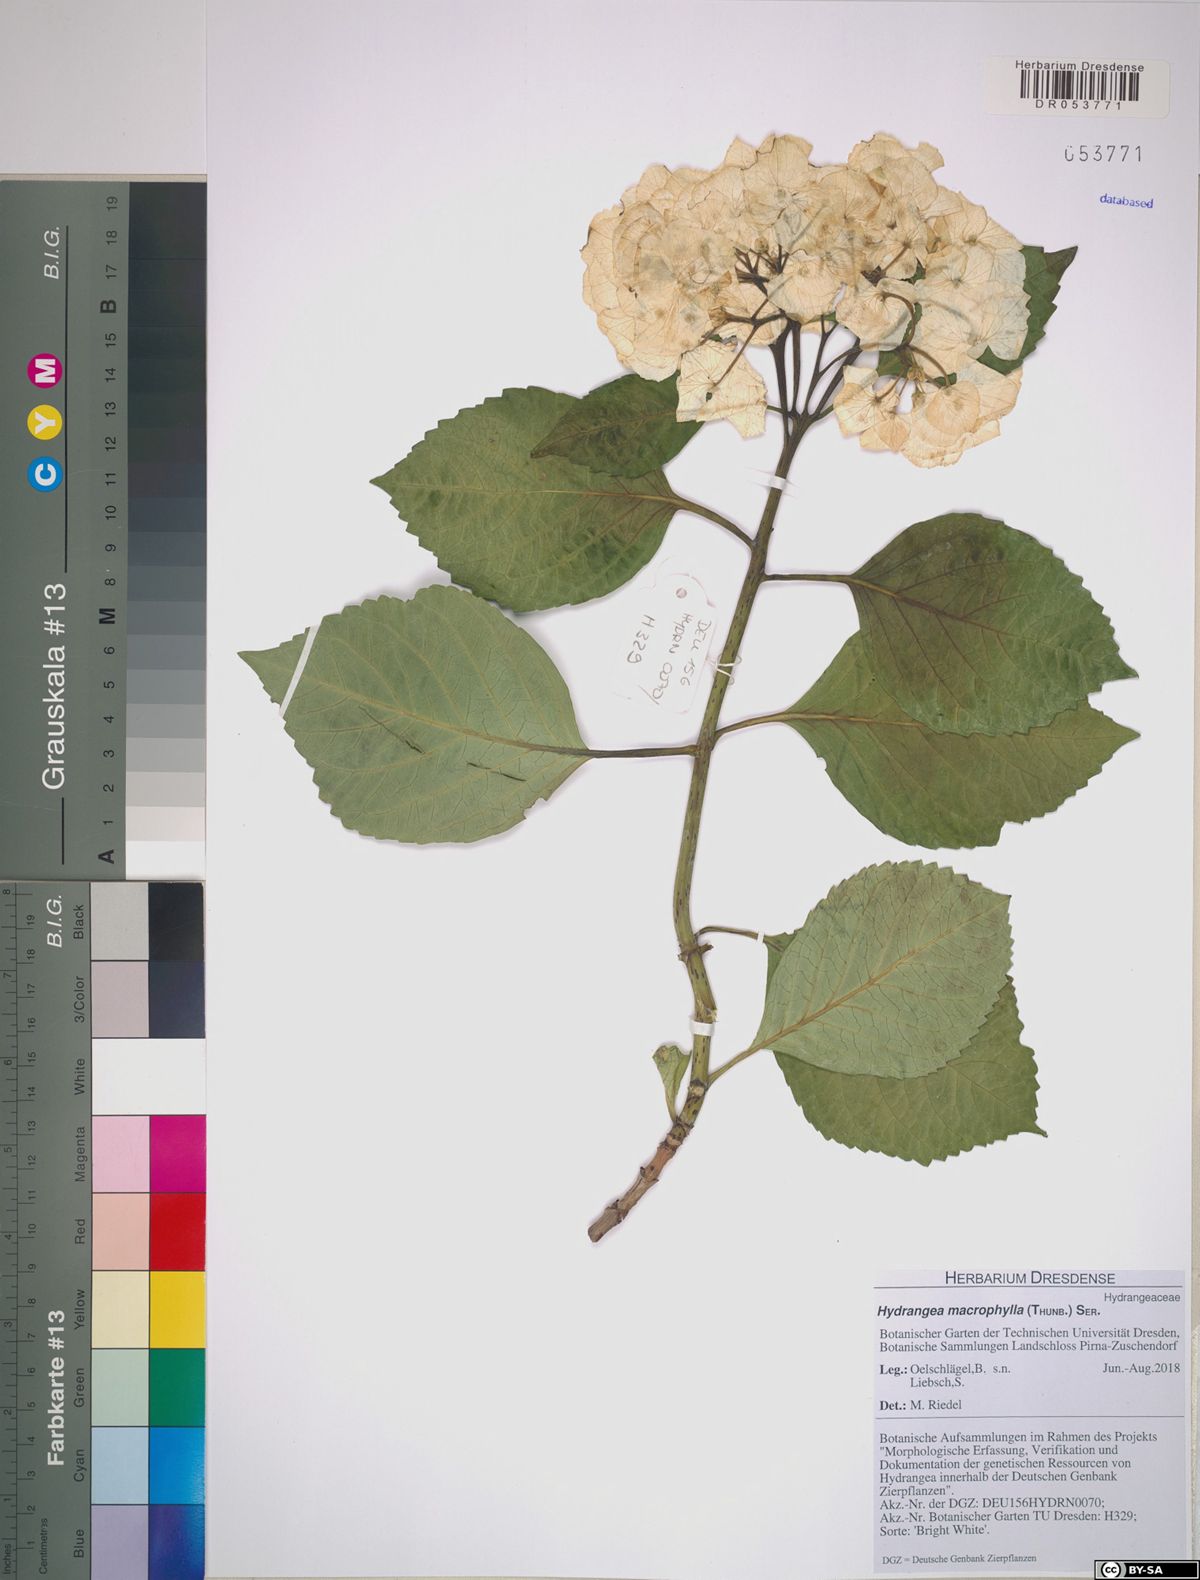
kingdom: Plantae
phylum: Tracheophyta
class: Magnoliopsida
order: Cornales
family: Hydrangeaceae
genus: Hydrangea
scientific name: Hydrangea macrophylla
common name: Hydrangea
